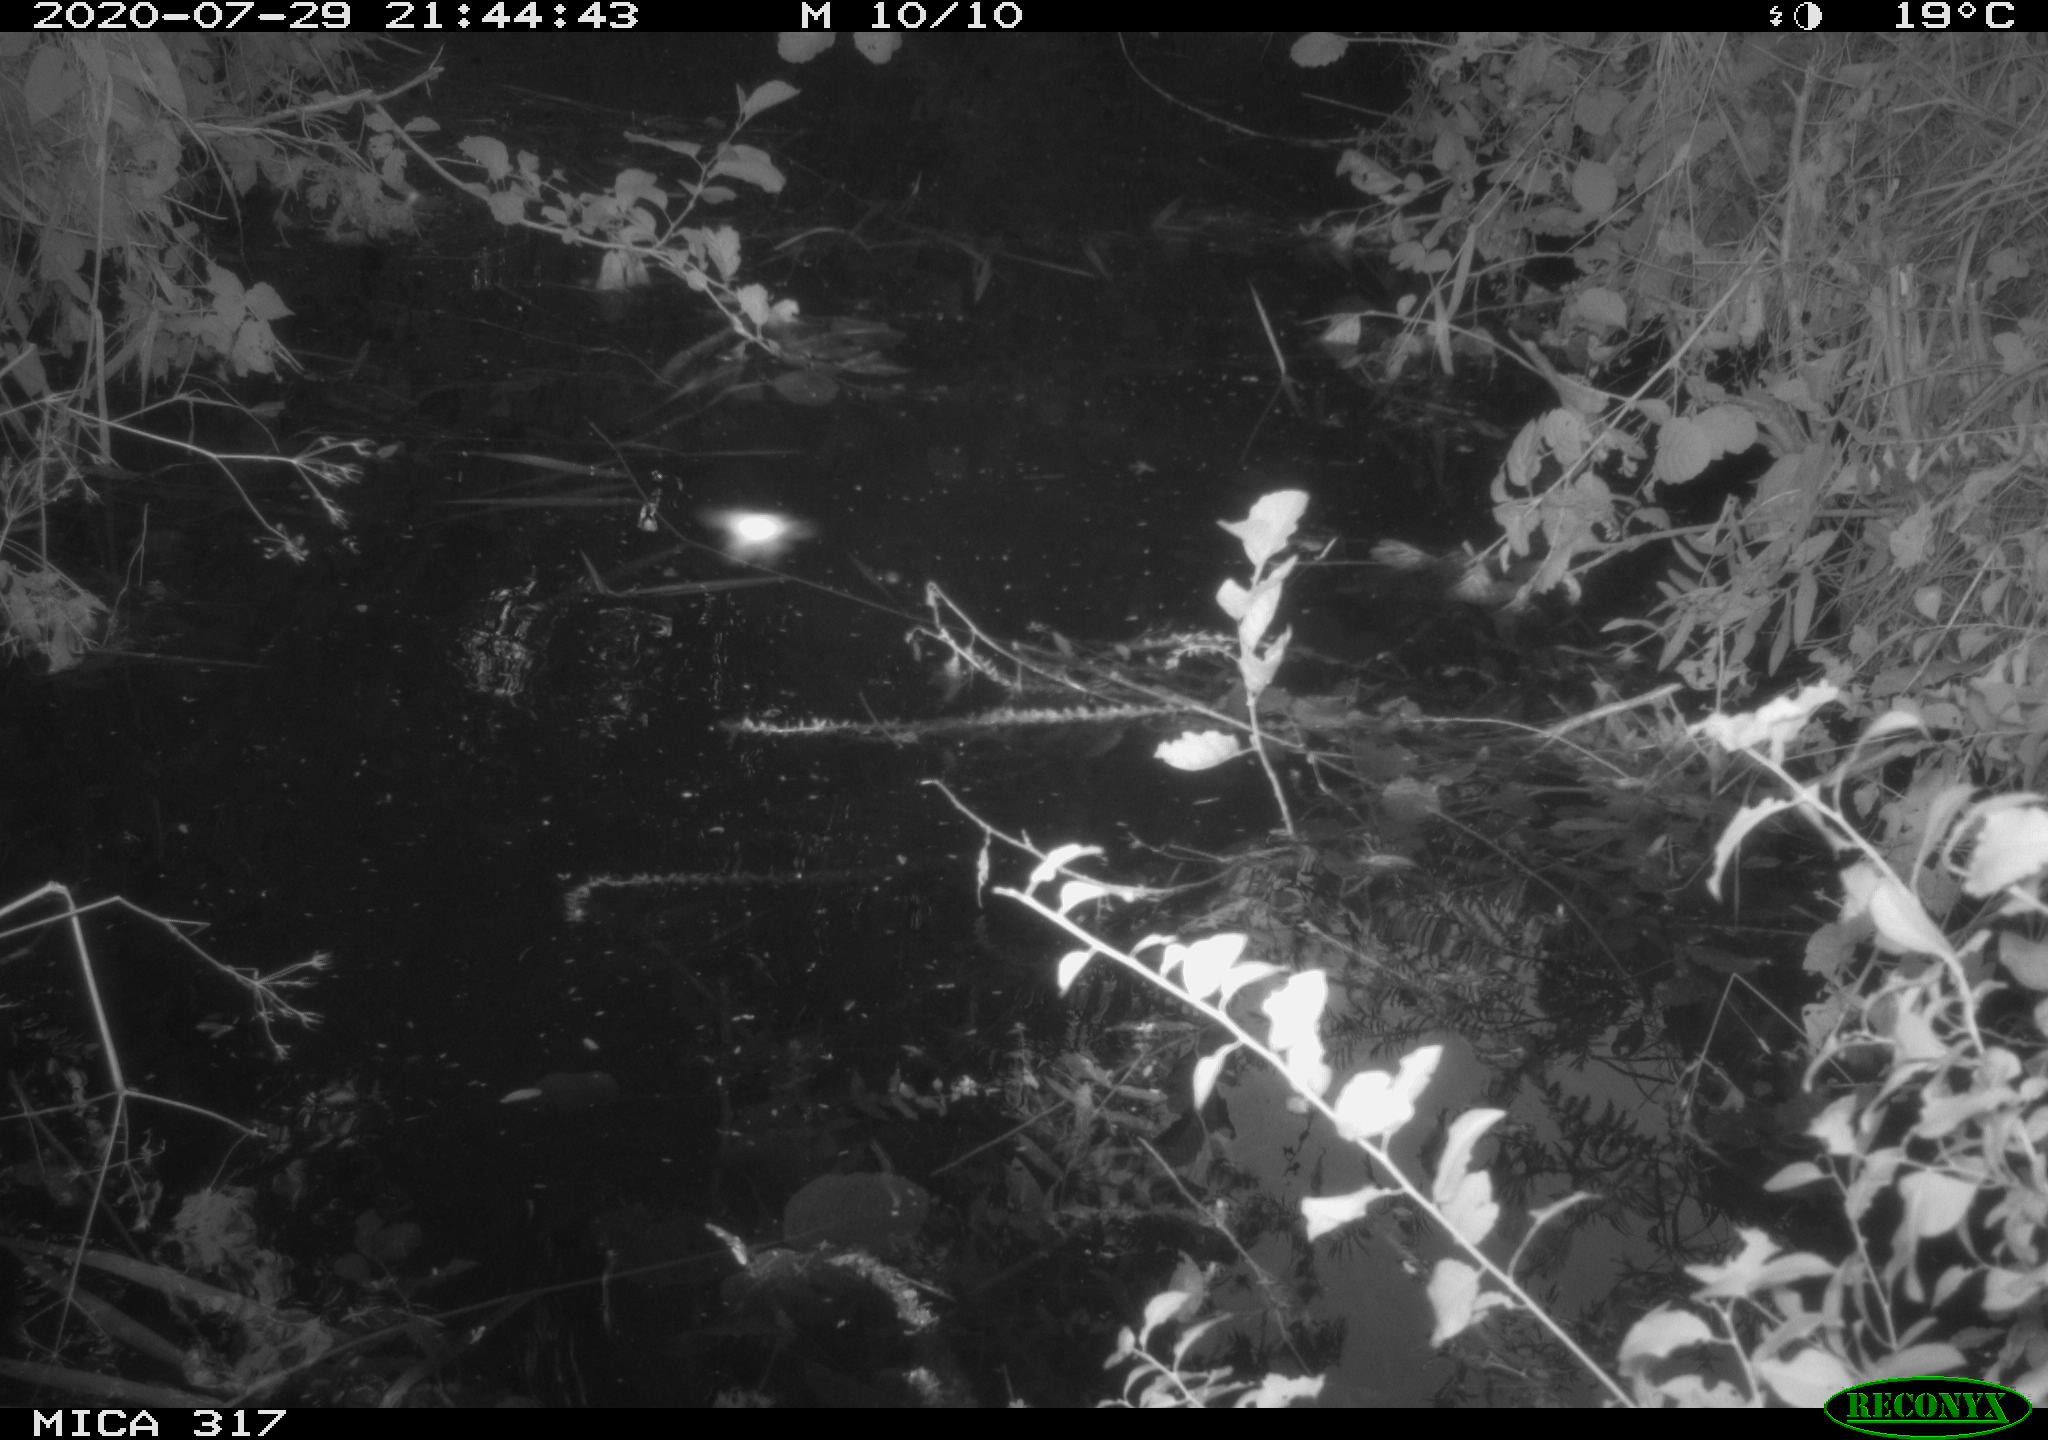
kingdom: Animalia
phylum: Chordata
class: Aves
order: Anseriformes
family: Anatidae
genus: Anas
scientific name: Anas platyrhynchos
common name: Mallard
